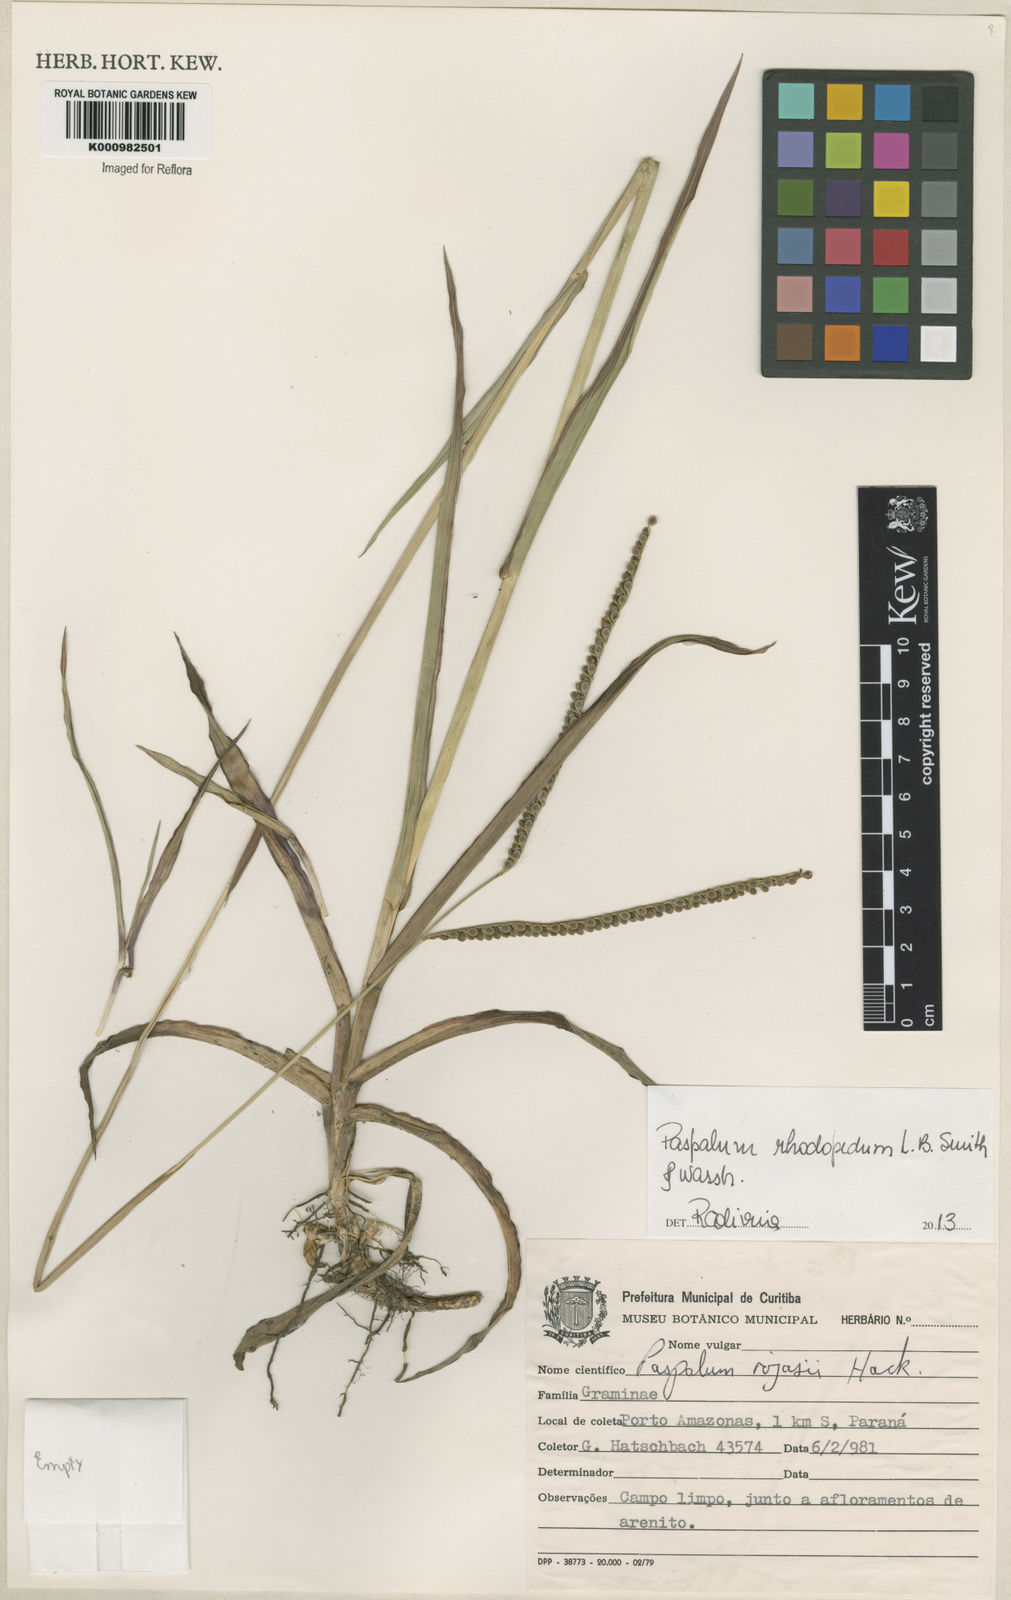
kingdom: Plantae
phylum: Tracheophyta
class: Liliopsida
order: Poales
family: Poaceae
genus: Paspalum
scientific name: Paspalum guenoarum
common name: Wintergreen paspalum
